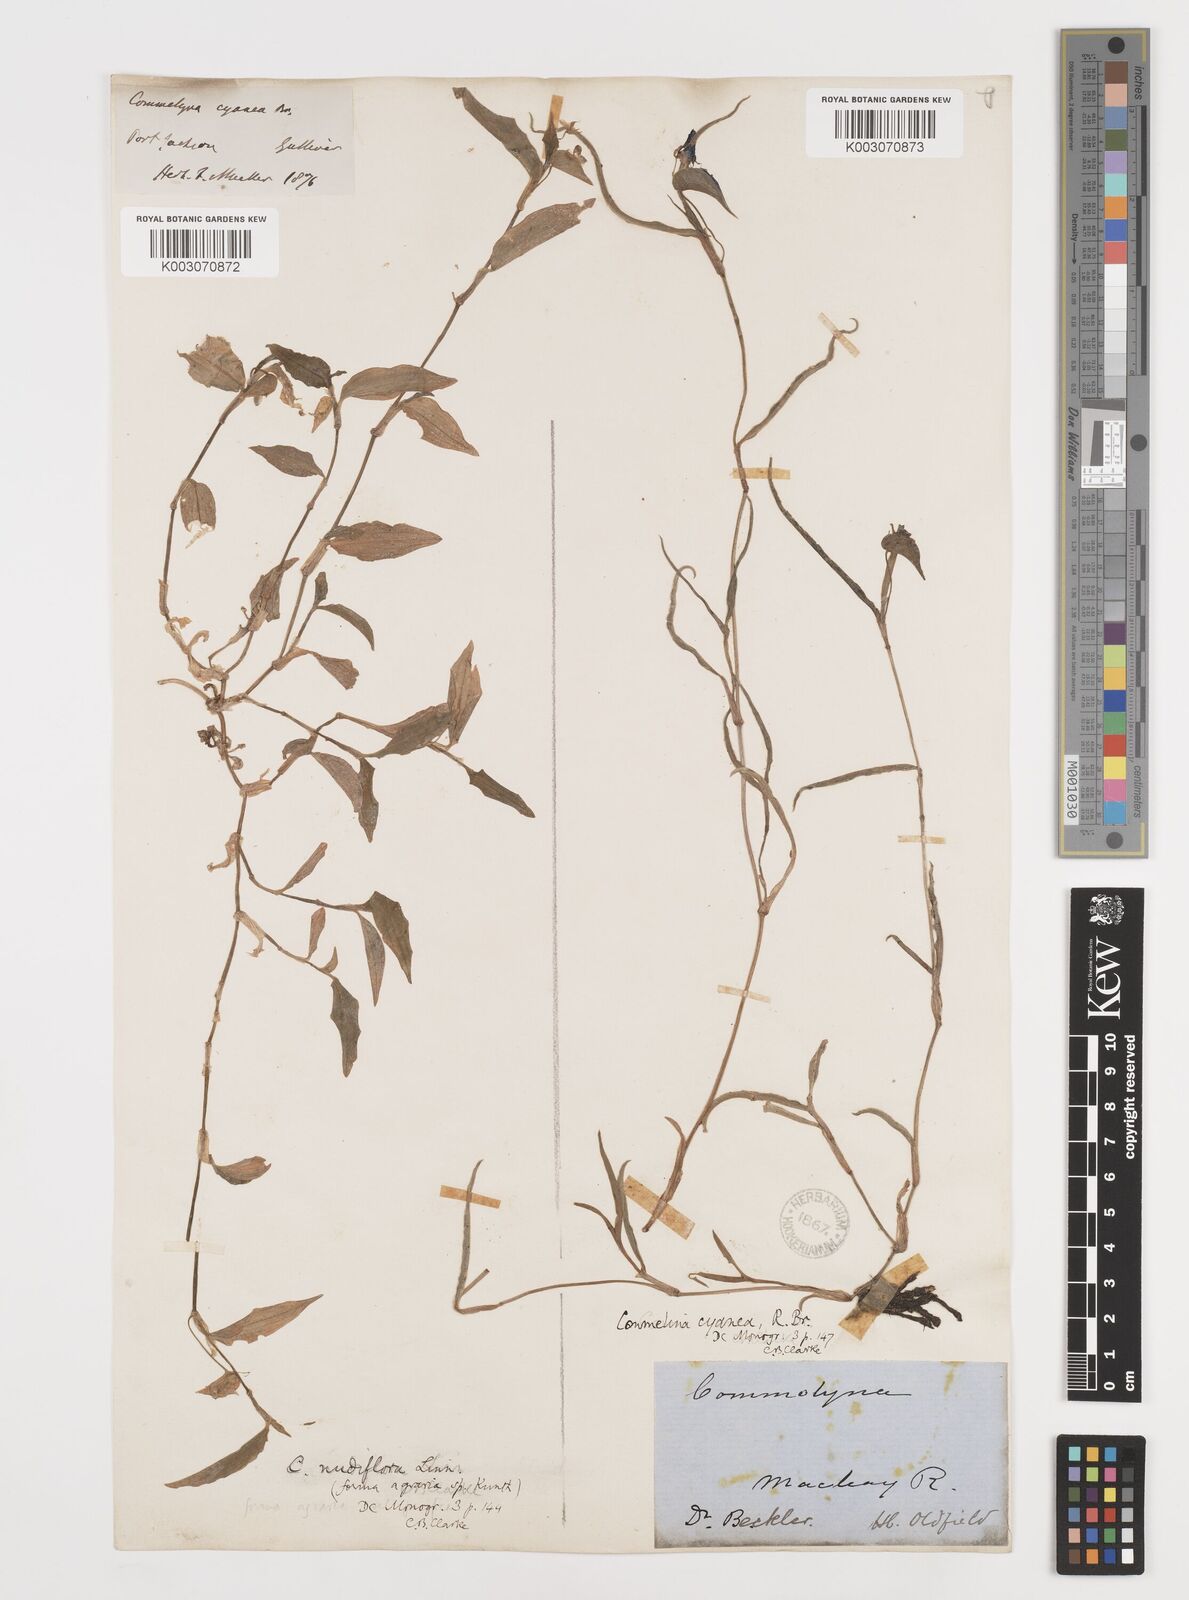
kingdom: Plantae
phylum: Tracheophyta
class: Liliopsida
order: Commelinales
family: Commelinaceae
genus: Commelina
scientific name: Commelina cyanea
